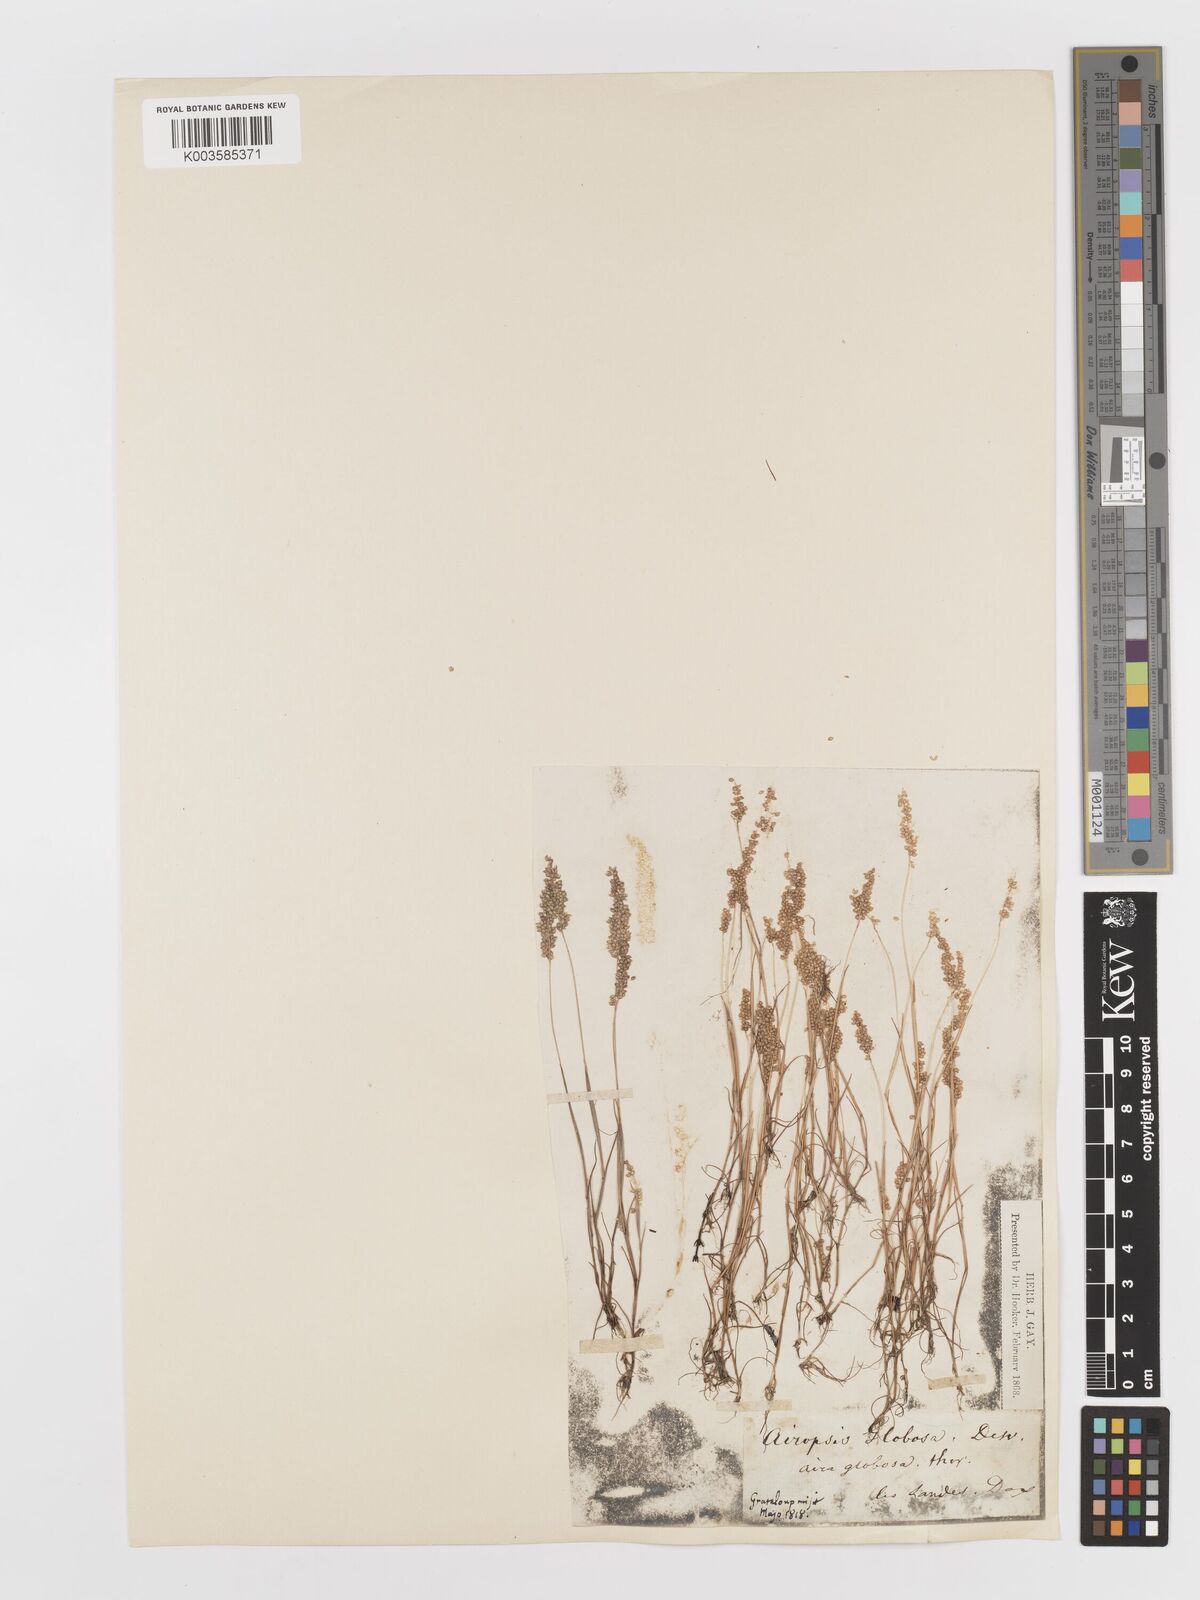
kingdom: Plantae
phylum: Tracheophyta
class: Liliopsida
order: Poales
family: Poaceae
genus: Airopsis
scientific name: Airopsis tenella
